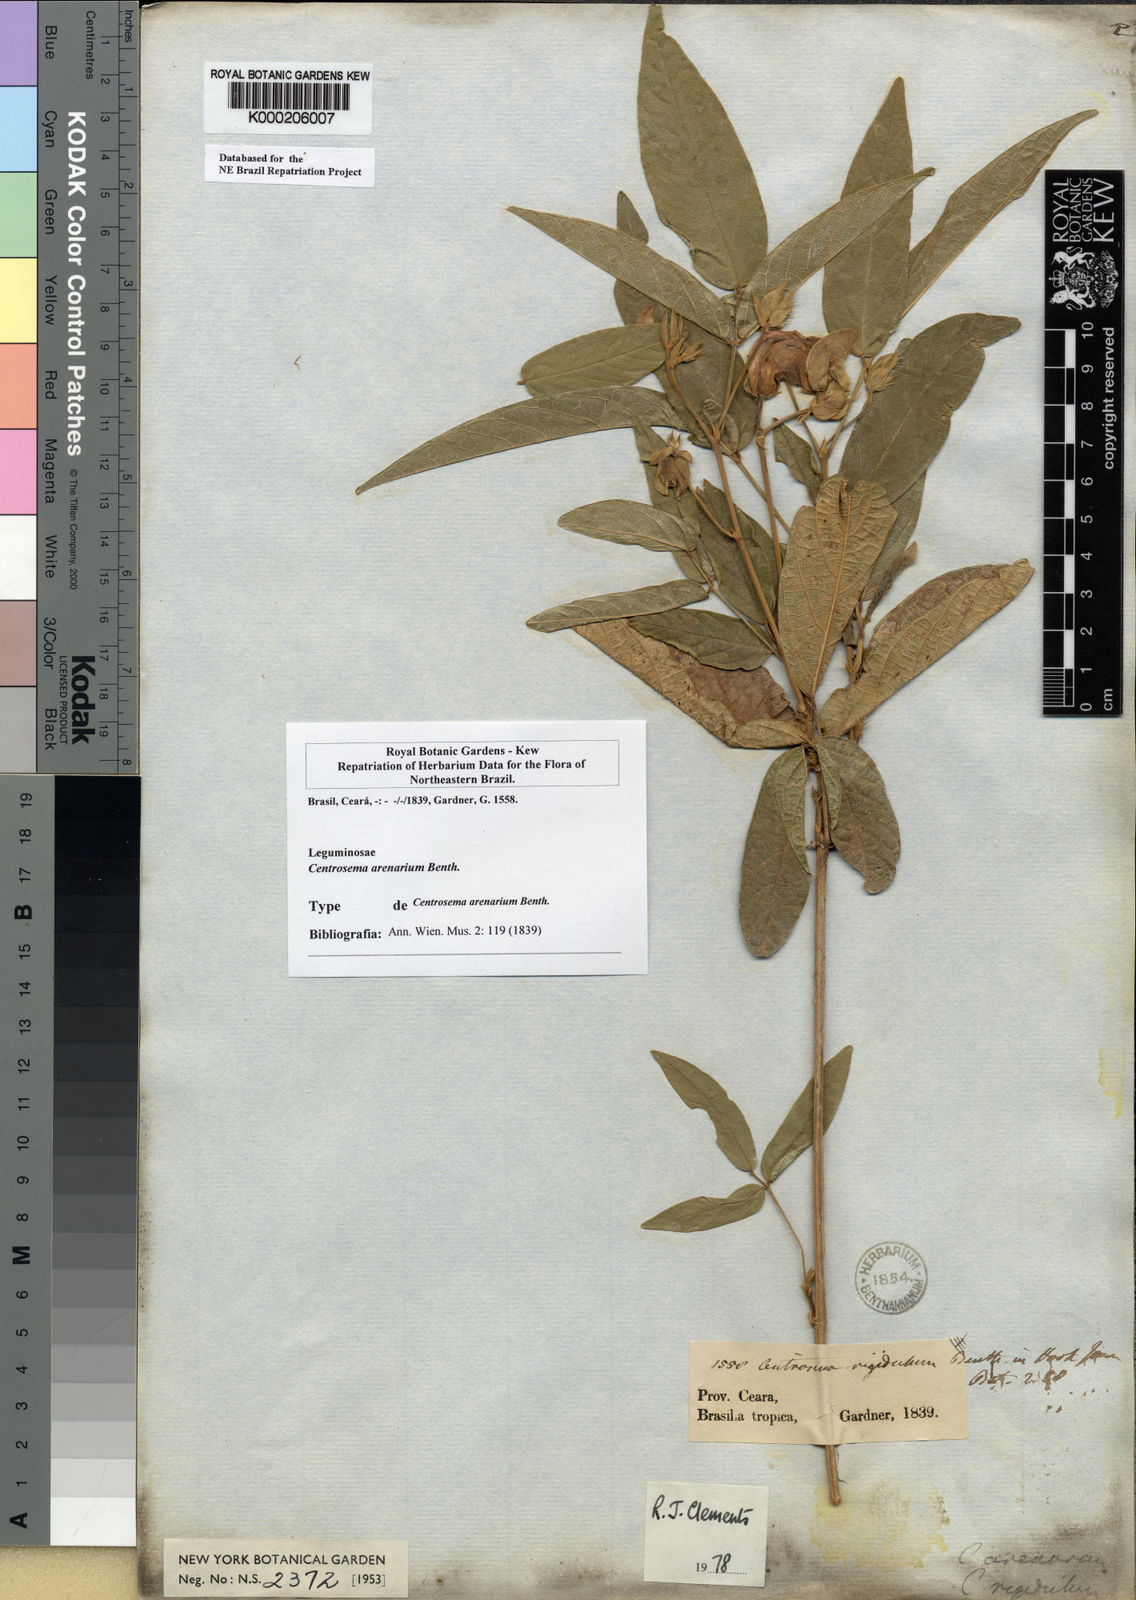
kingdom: Plantae
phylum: Tracheophyta
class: Magnoliopsida
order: Fabales
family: Fabaceae
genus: Centrosema
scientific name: Centrosema arenarium
